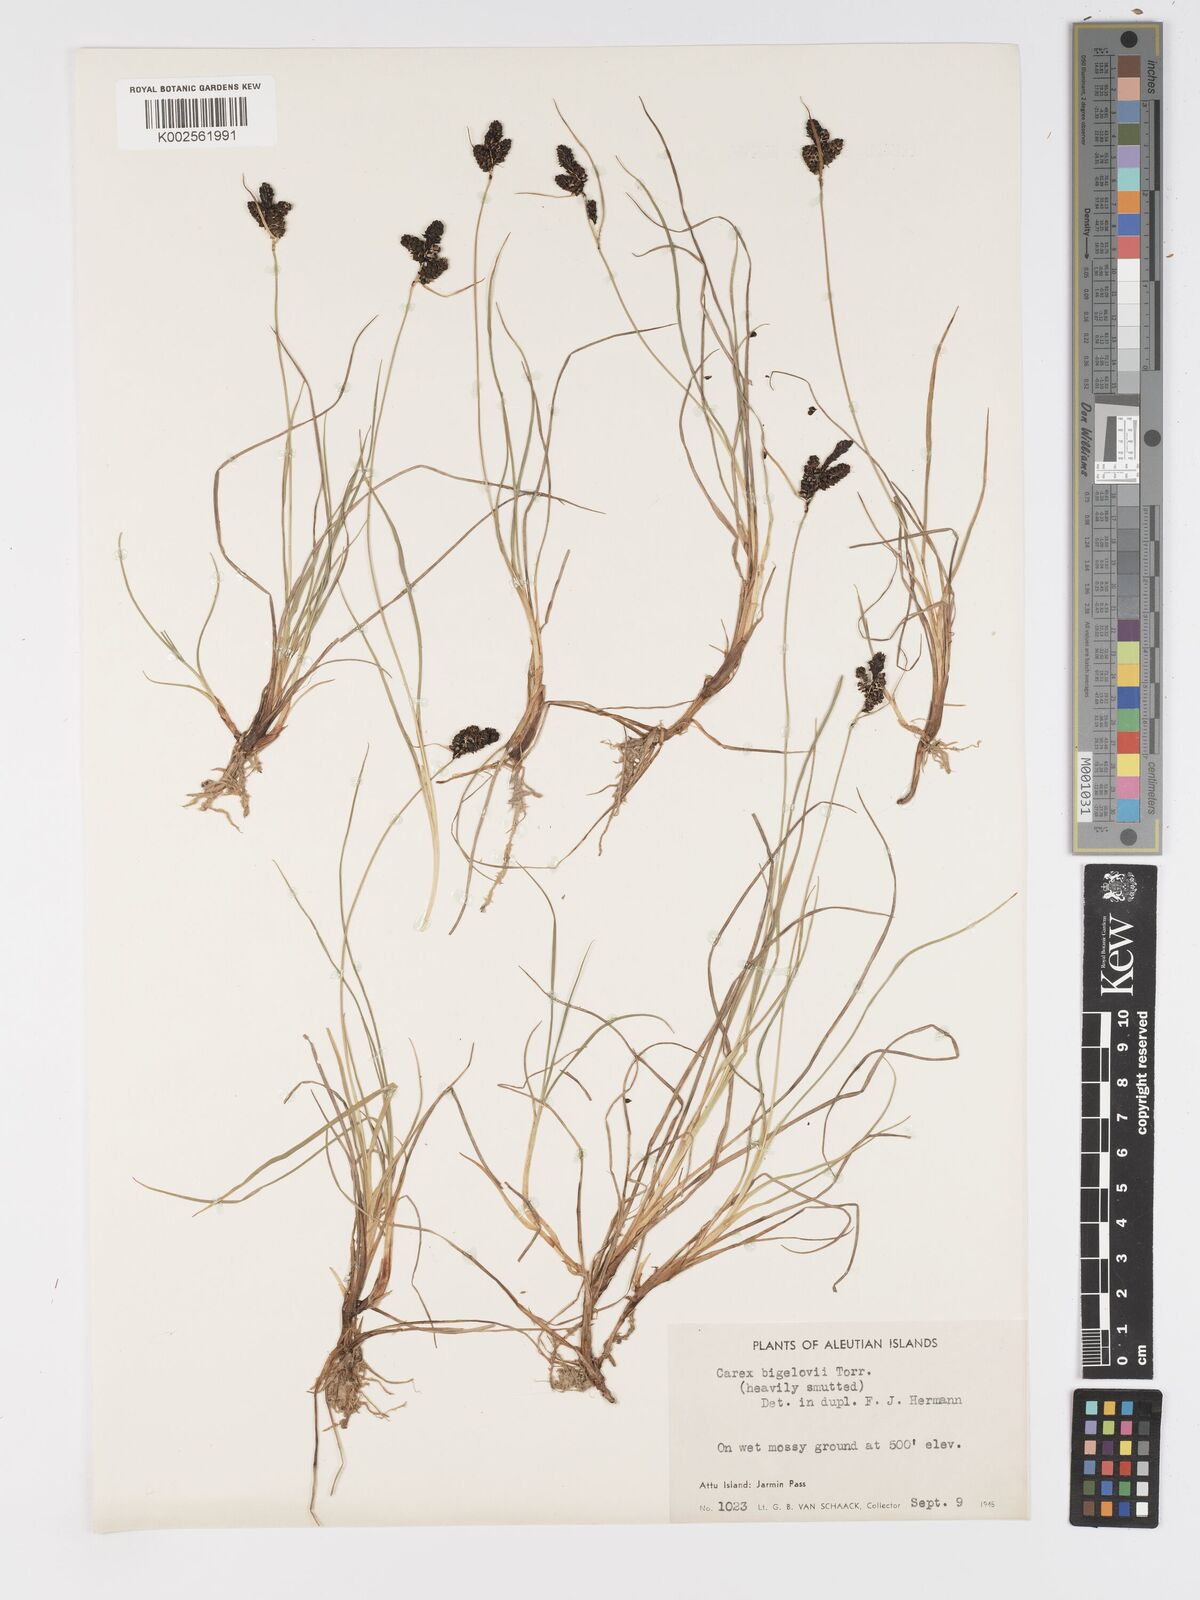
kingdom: Plantae
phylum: Tracheophyta
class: Liliopsida
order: Poales
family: Cyperaceae
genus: Carex
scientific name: Carex bigelowii
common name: Stiff sedge
